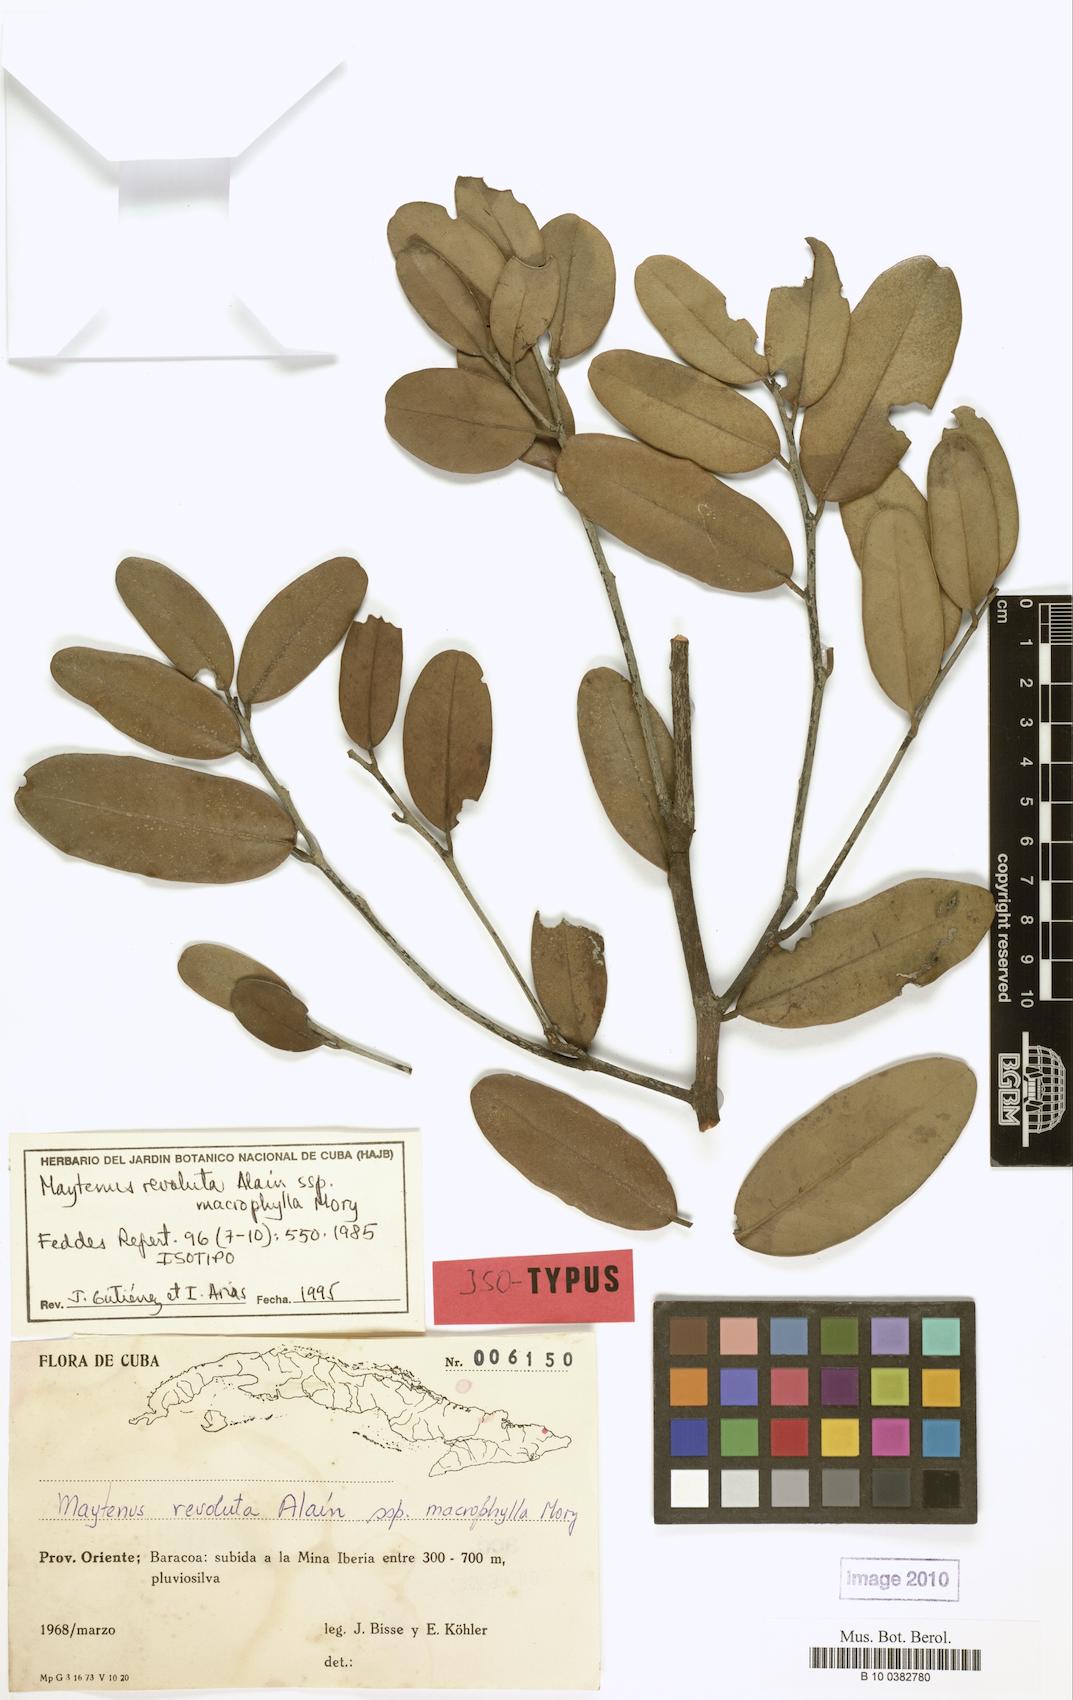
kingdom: Plantae
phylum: Tracheophyta
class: Magnoliopsida
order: Celastrales
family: Celastraceae
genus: Monteverdia
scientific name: Monteverdia revoluta
